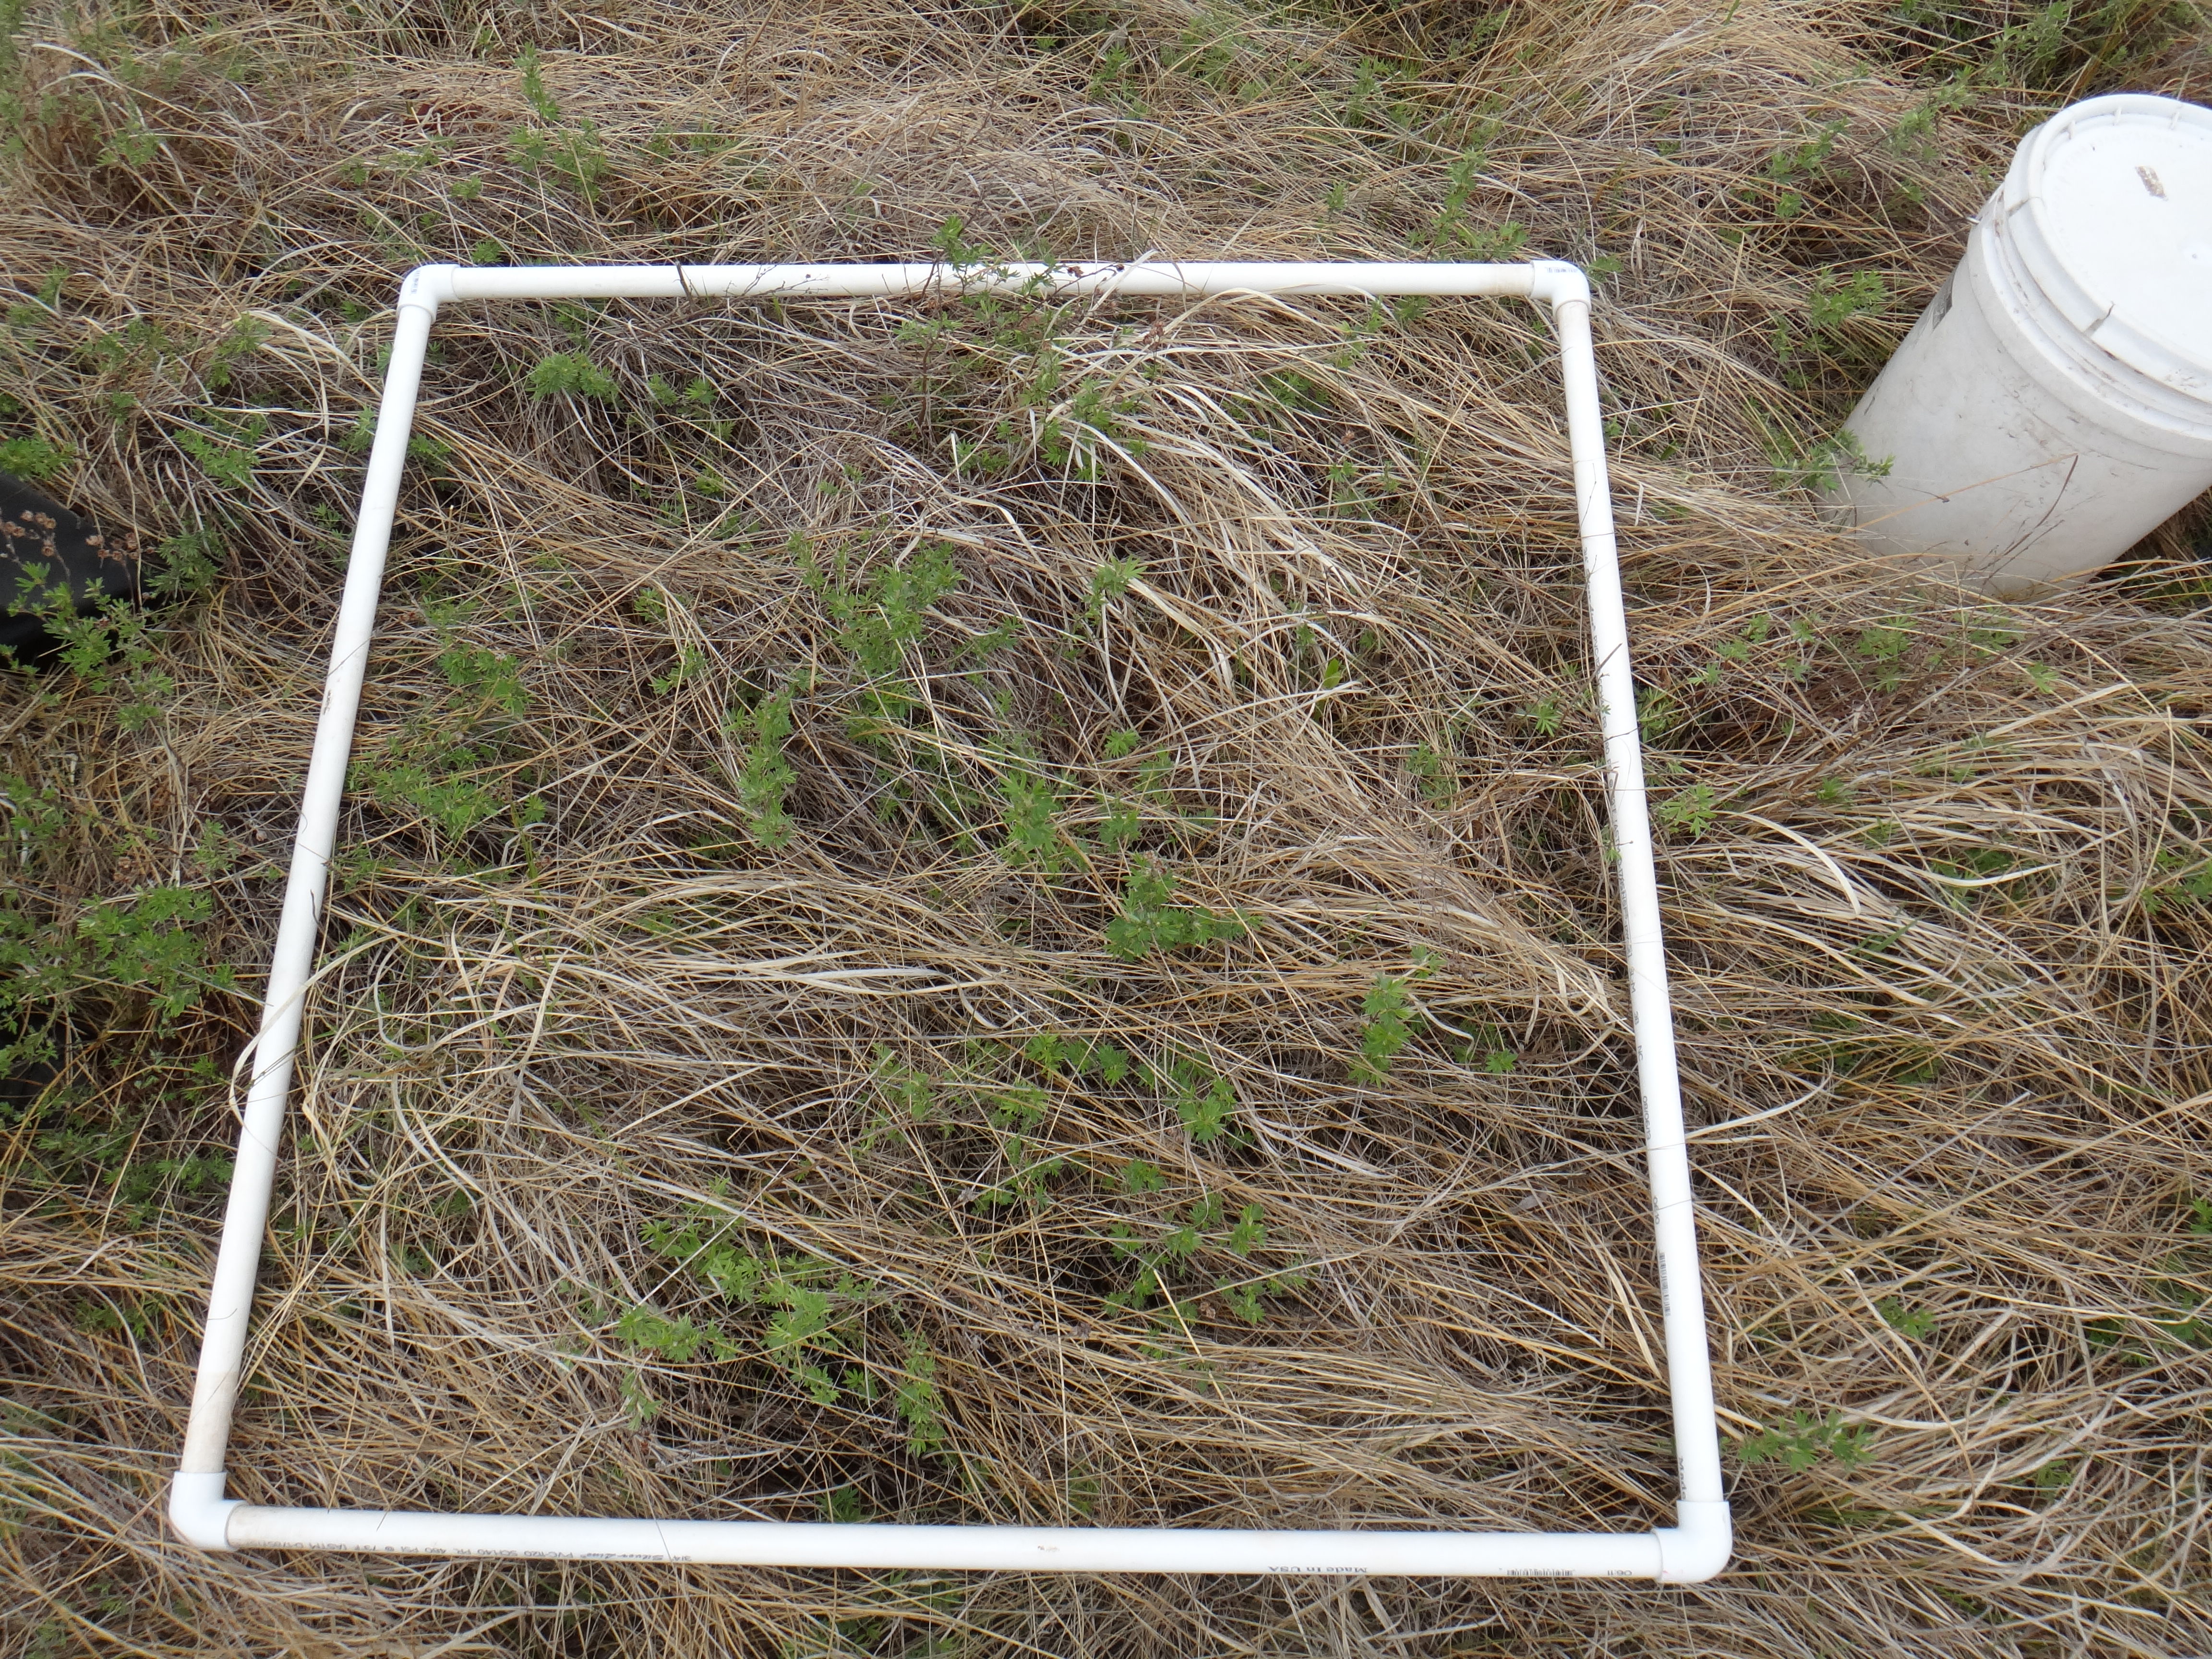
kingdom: Plantae
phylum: Tracheophyta
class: Magnoliopsida
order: Rosales
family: Rosaceae
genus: Dasiphora
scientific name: Dasiphora fruticosa
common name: Shrubby cinquefoil
